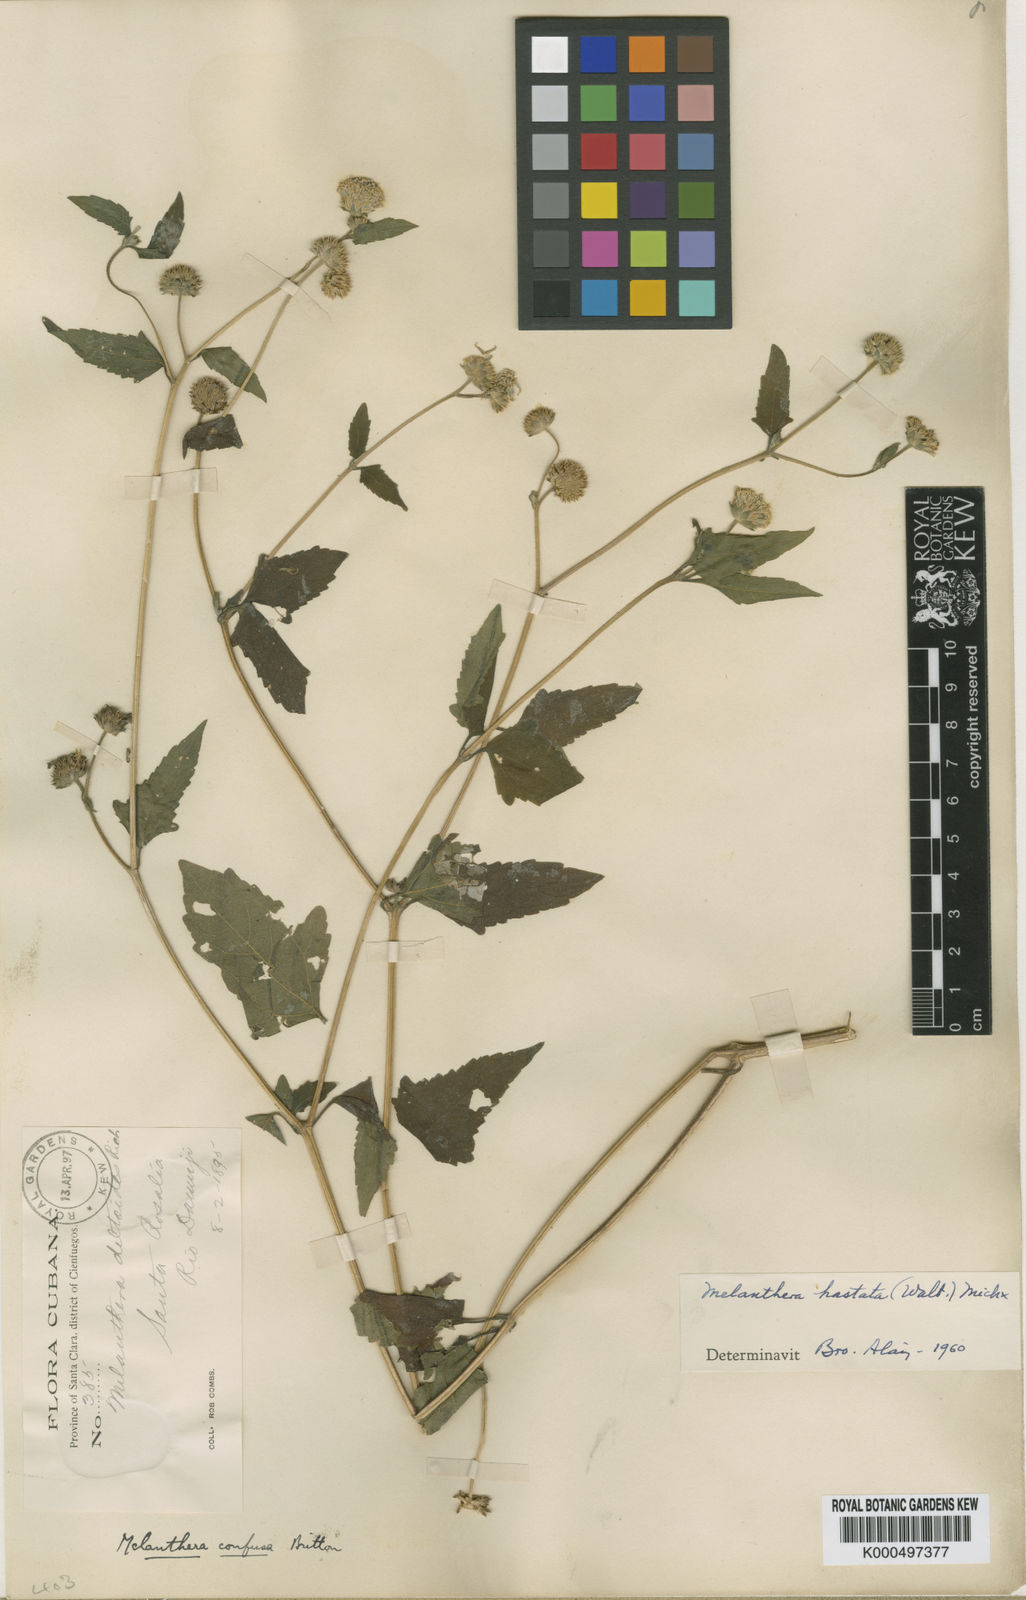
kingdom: Plantae
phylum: Tracheophyta
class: Magnoliopsida
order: Asterales
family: Asteraceae
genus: Melanthera
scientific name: Melanthera nivea
